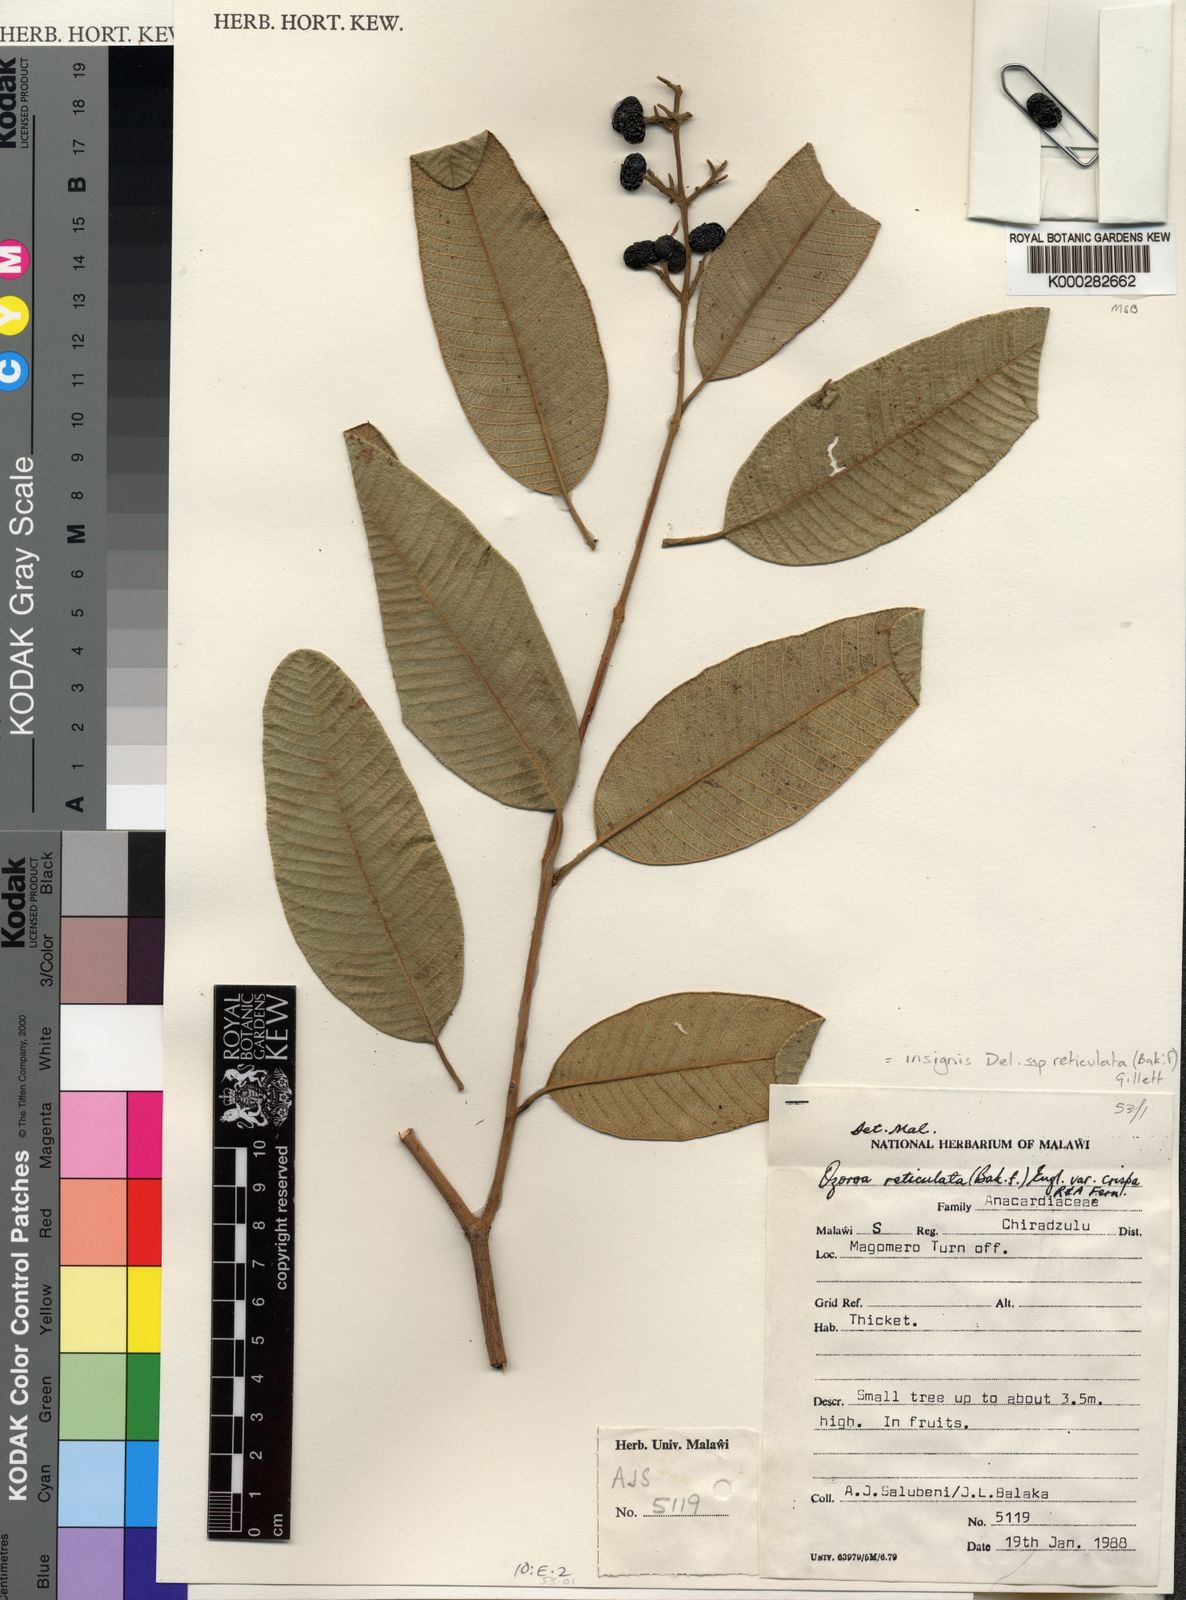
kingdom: Plantae
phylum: Tracheophyta
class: Magnoliopsida
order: Sapindales
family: Anacardiaceae
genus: Ozoroa
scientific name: Ozoroa insignis
